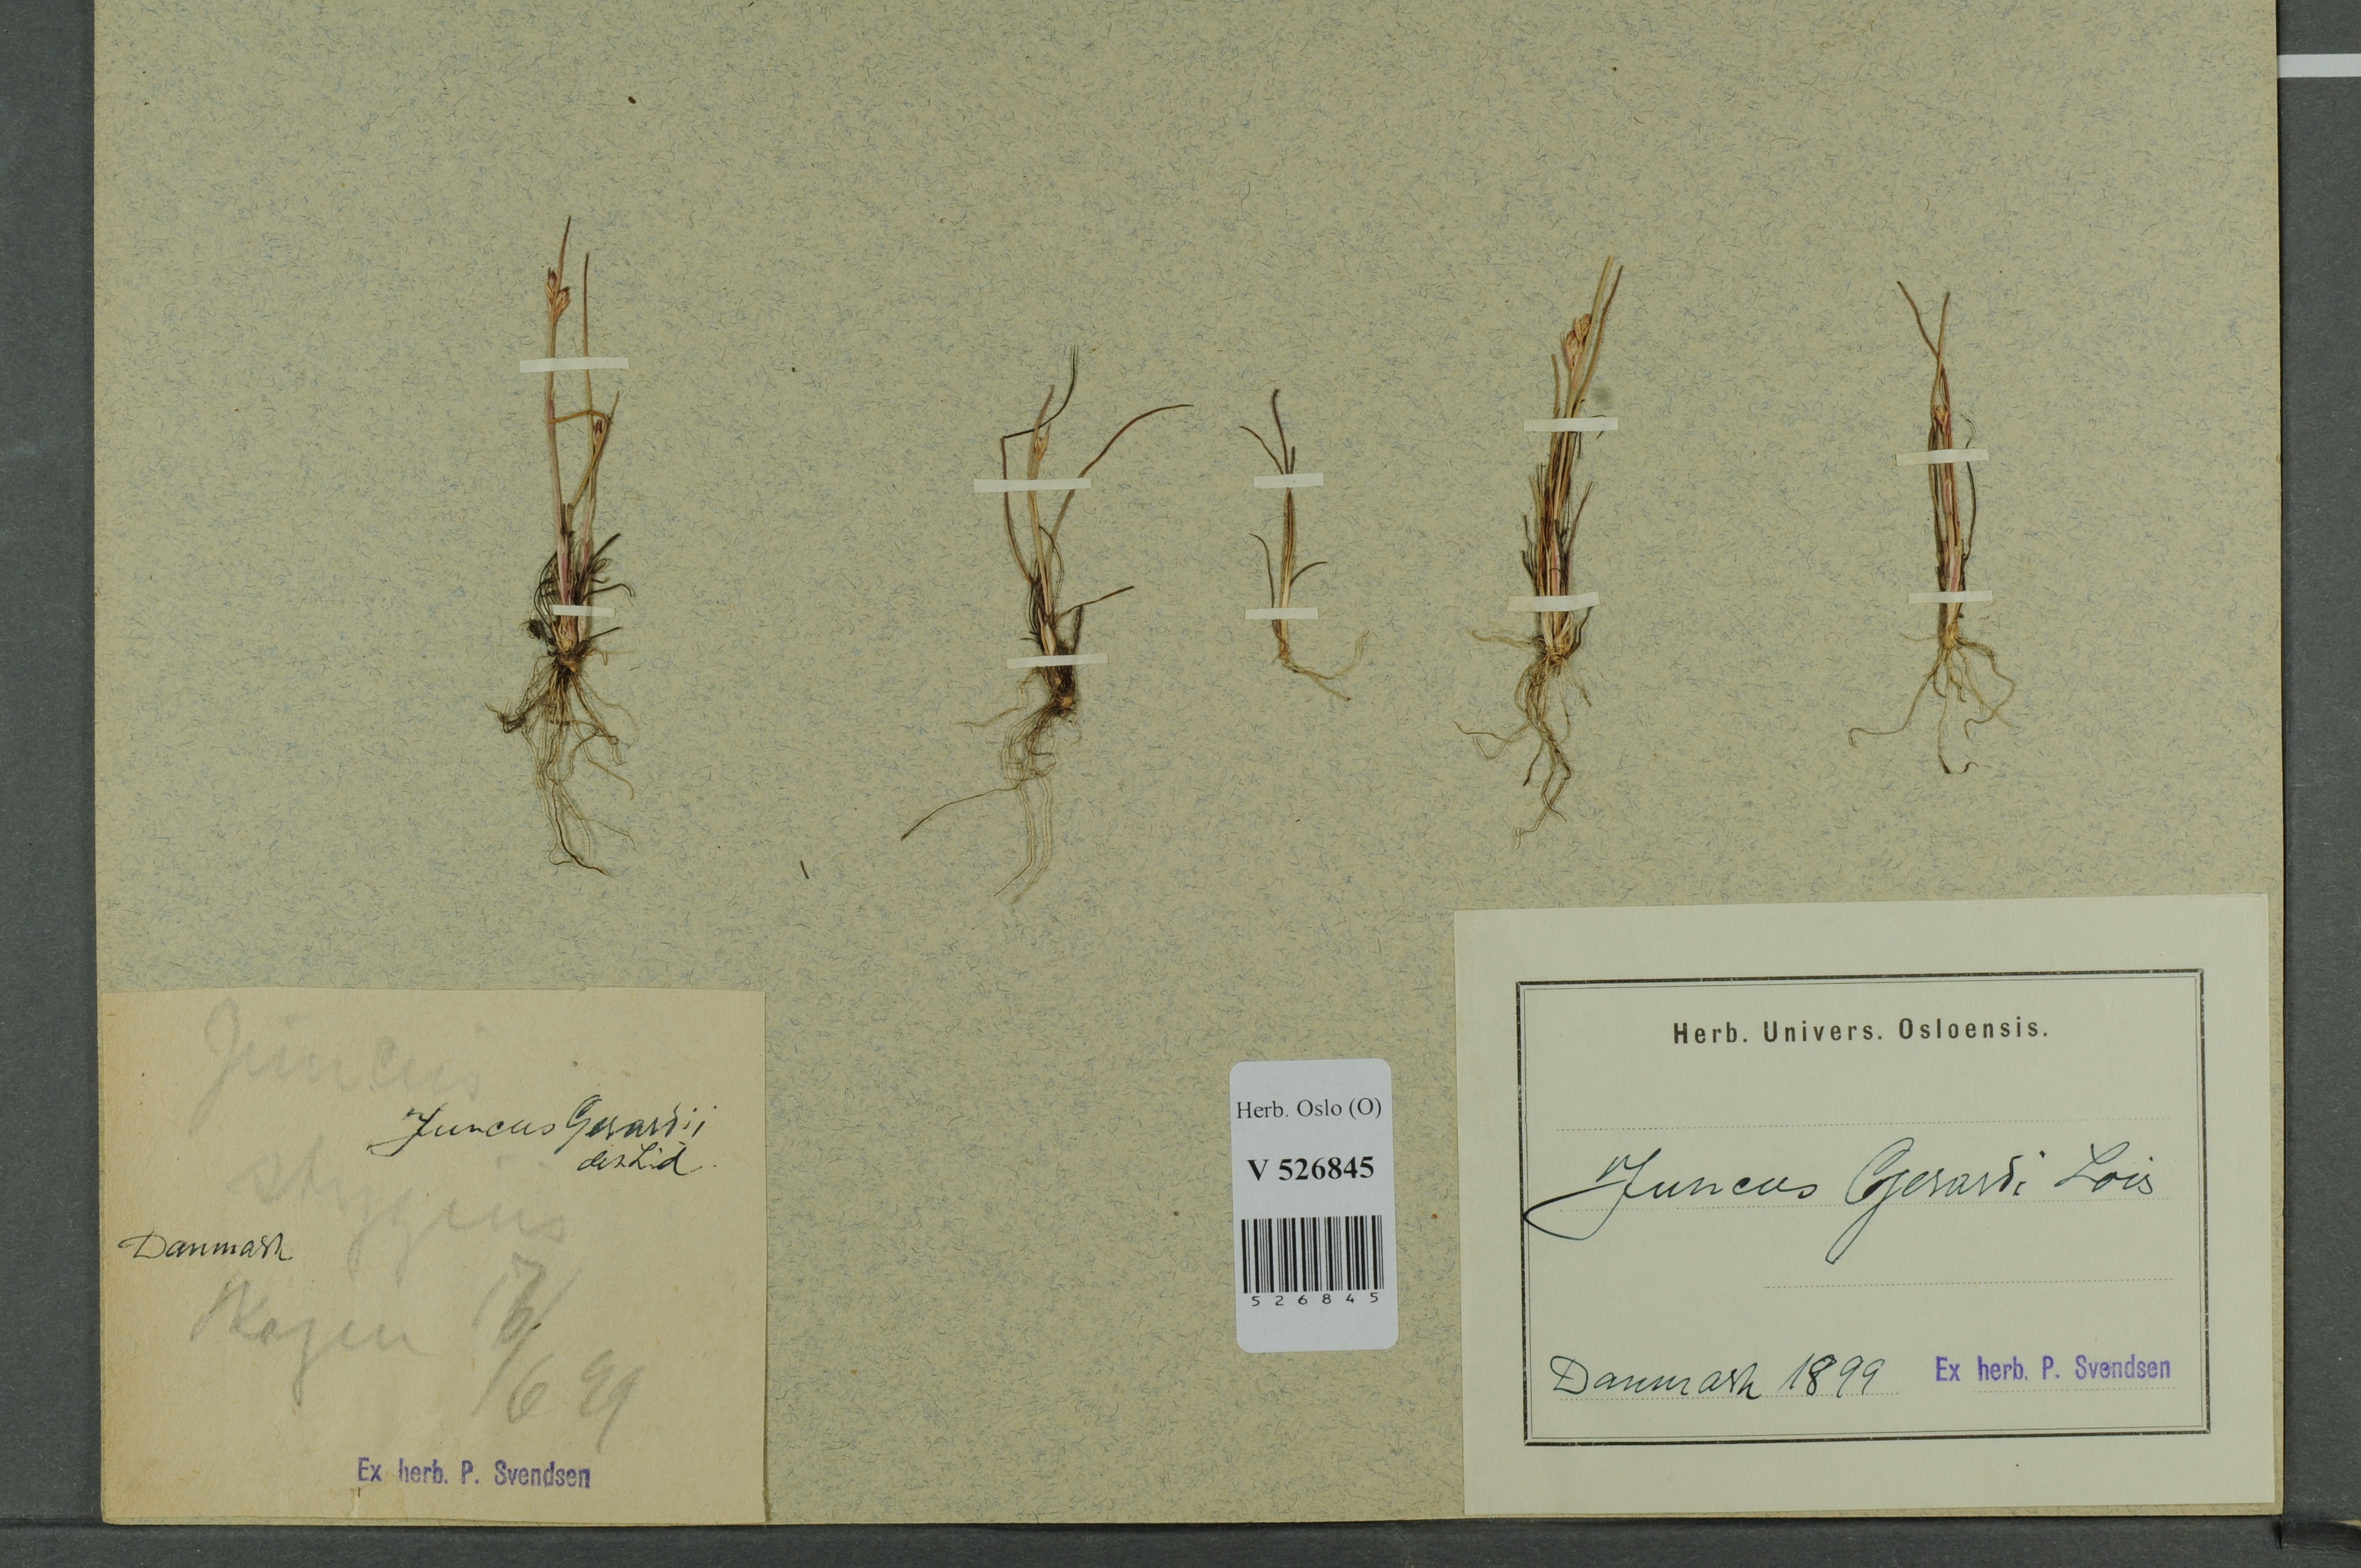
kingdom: Plantae
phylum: Tracheophyta
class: Liliopsida
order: Poales
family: Juncaceae
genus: Juncus
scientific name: Juncus bulbosus
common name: Bulbous rush
